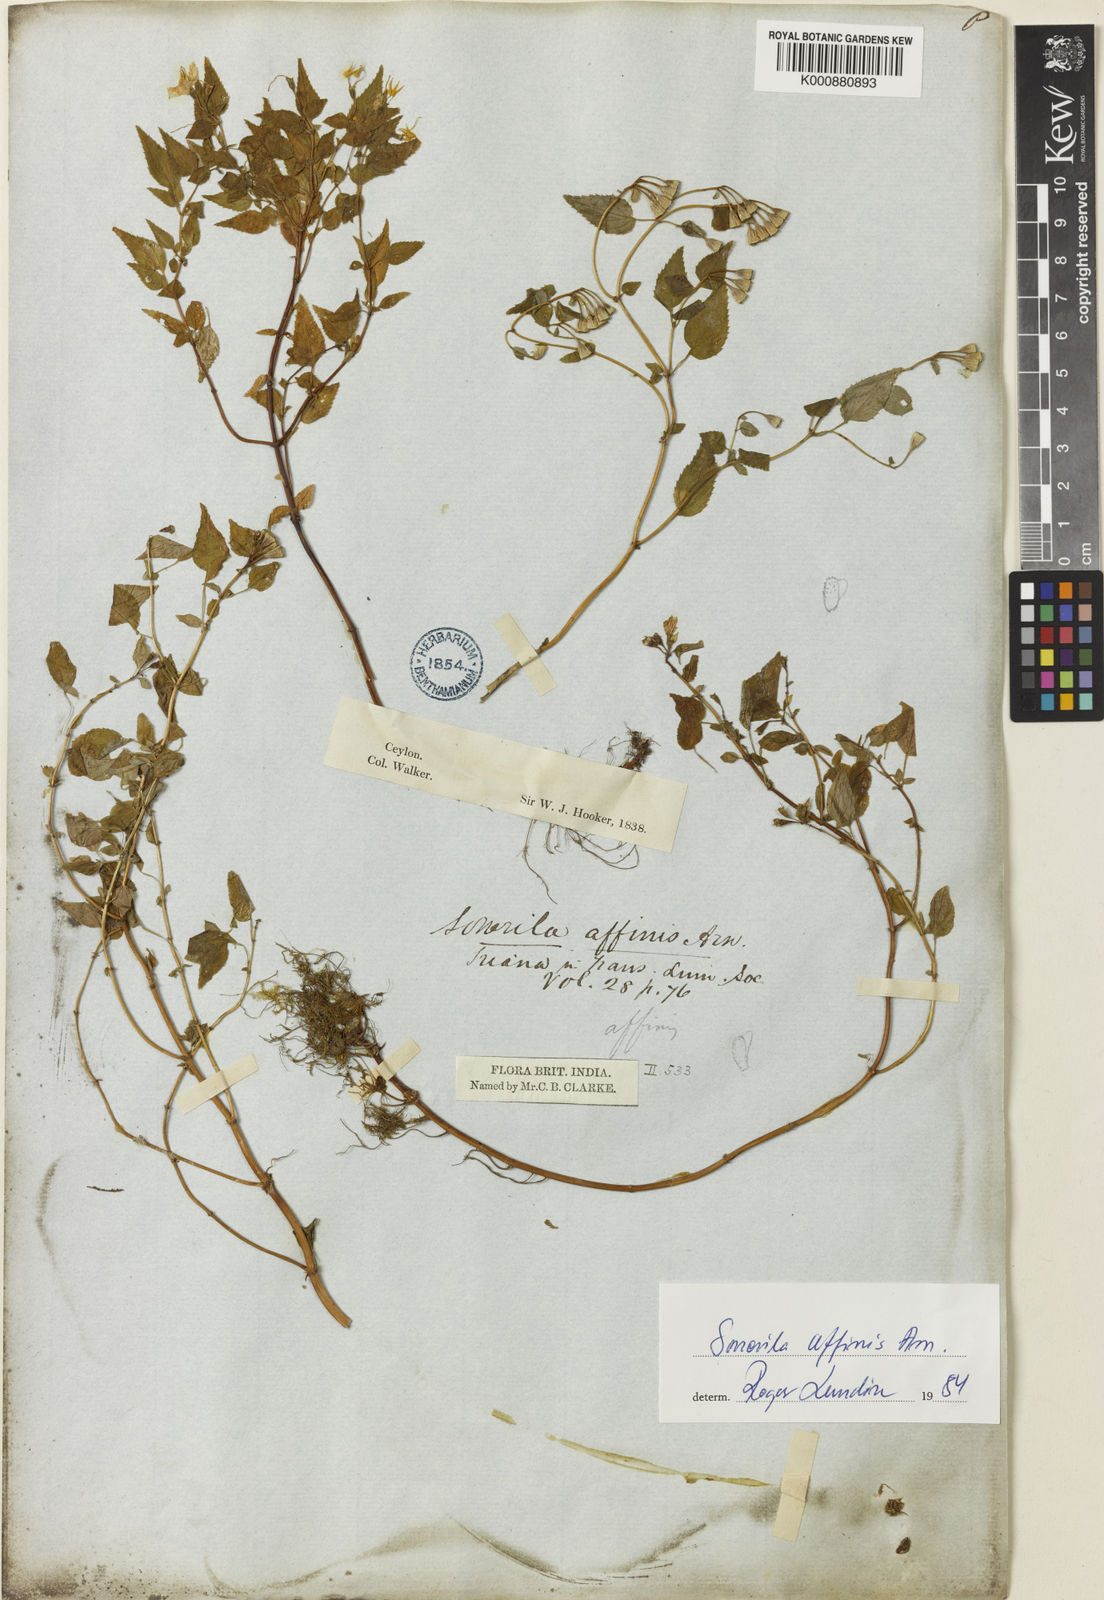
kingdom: Plantae
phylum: Tracheophyta
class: Magnoliopsida
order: Myrtales
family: Melastomataceae
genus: Sonerila
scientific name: Sonerila affinis
